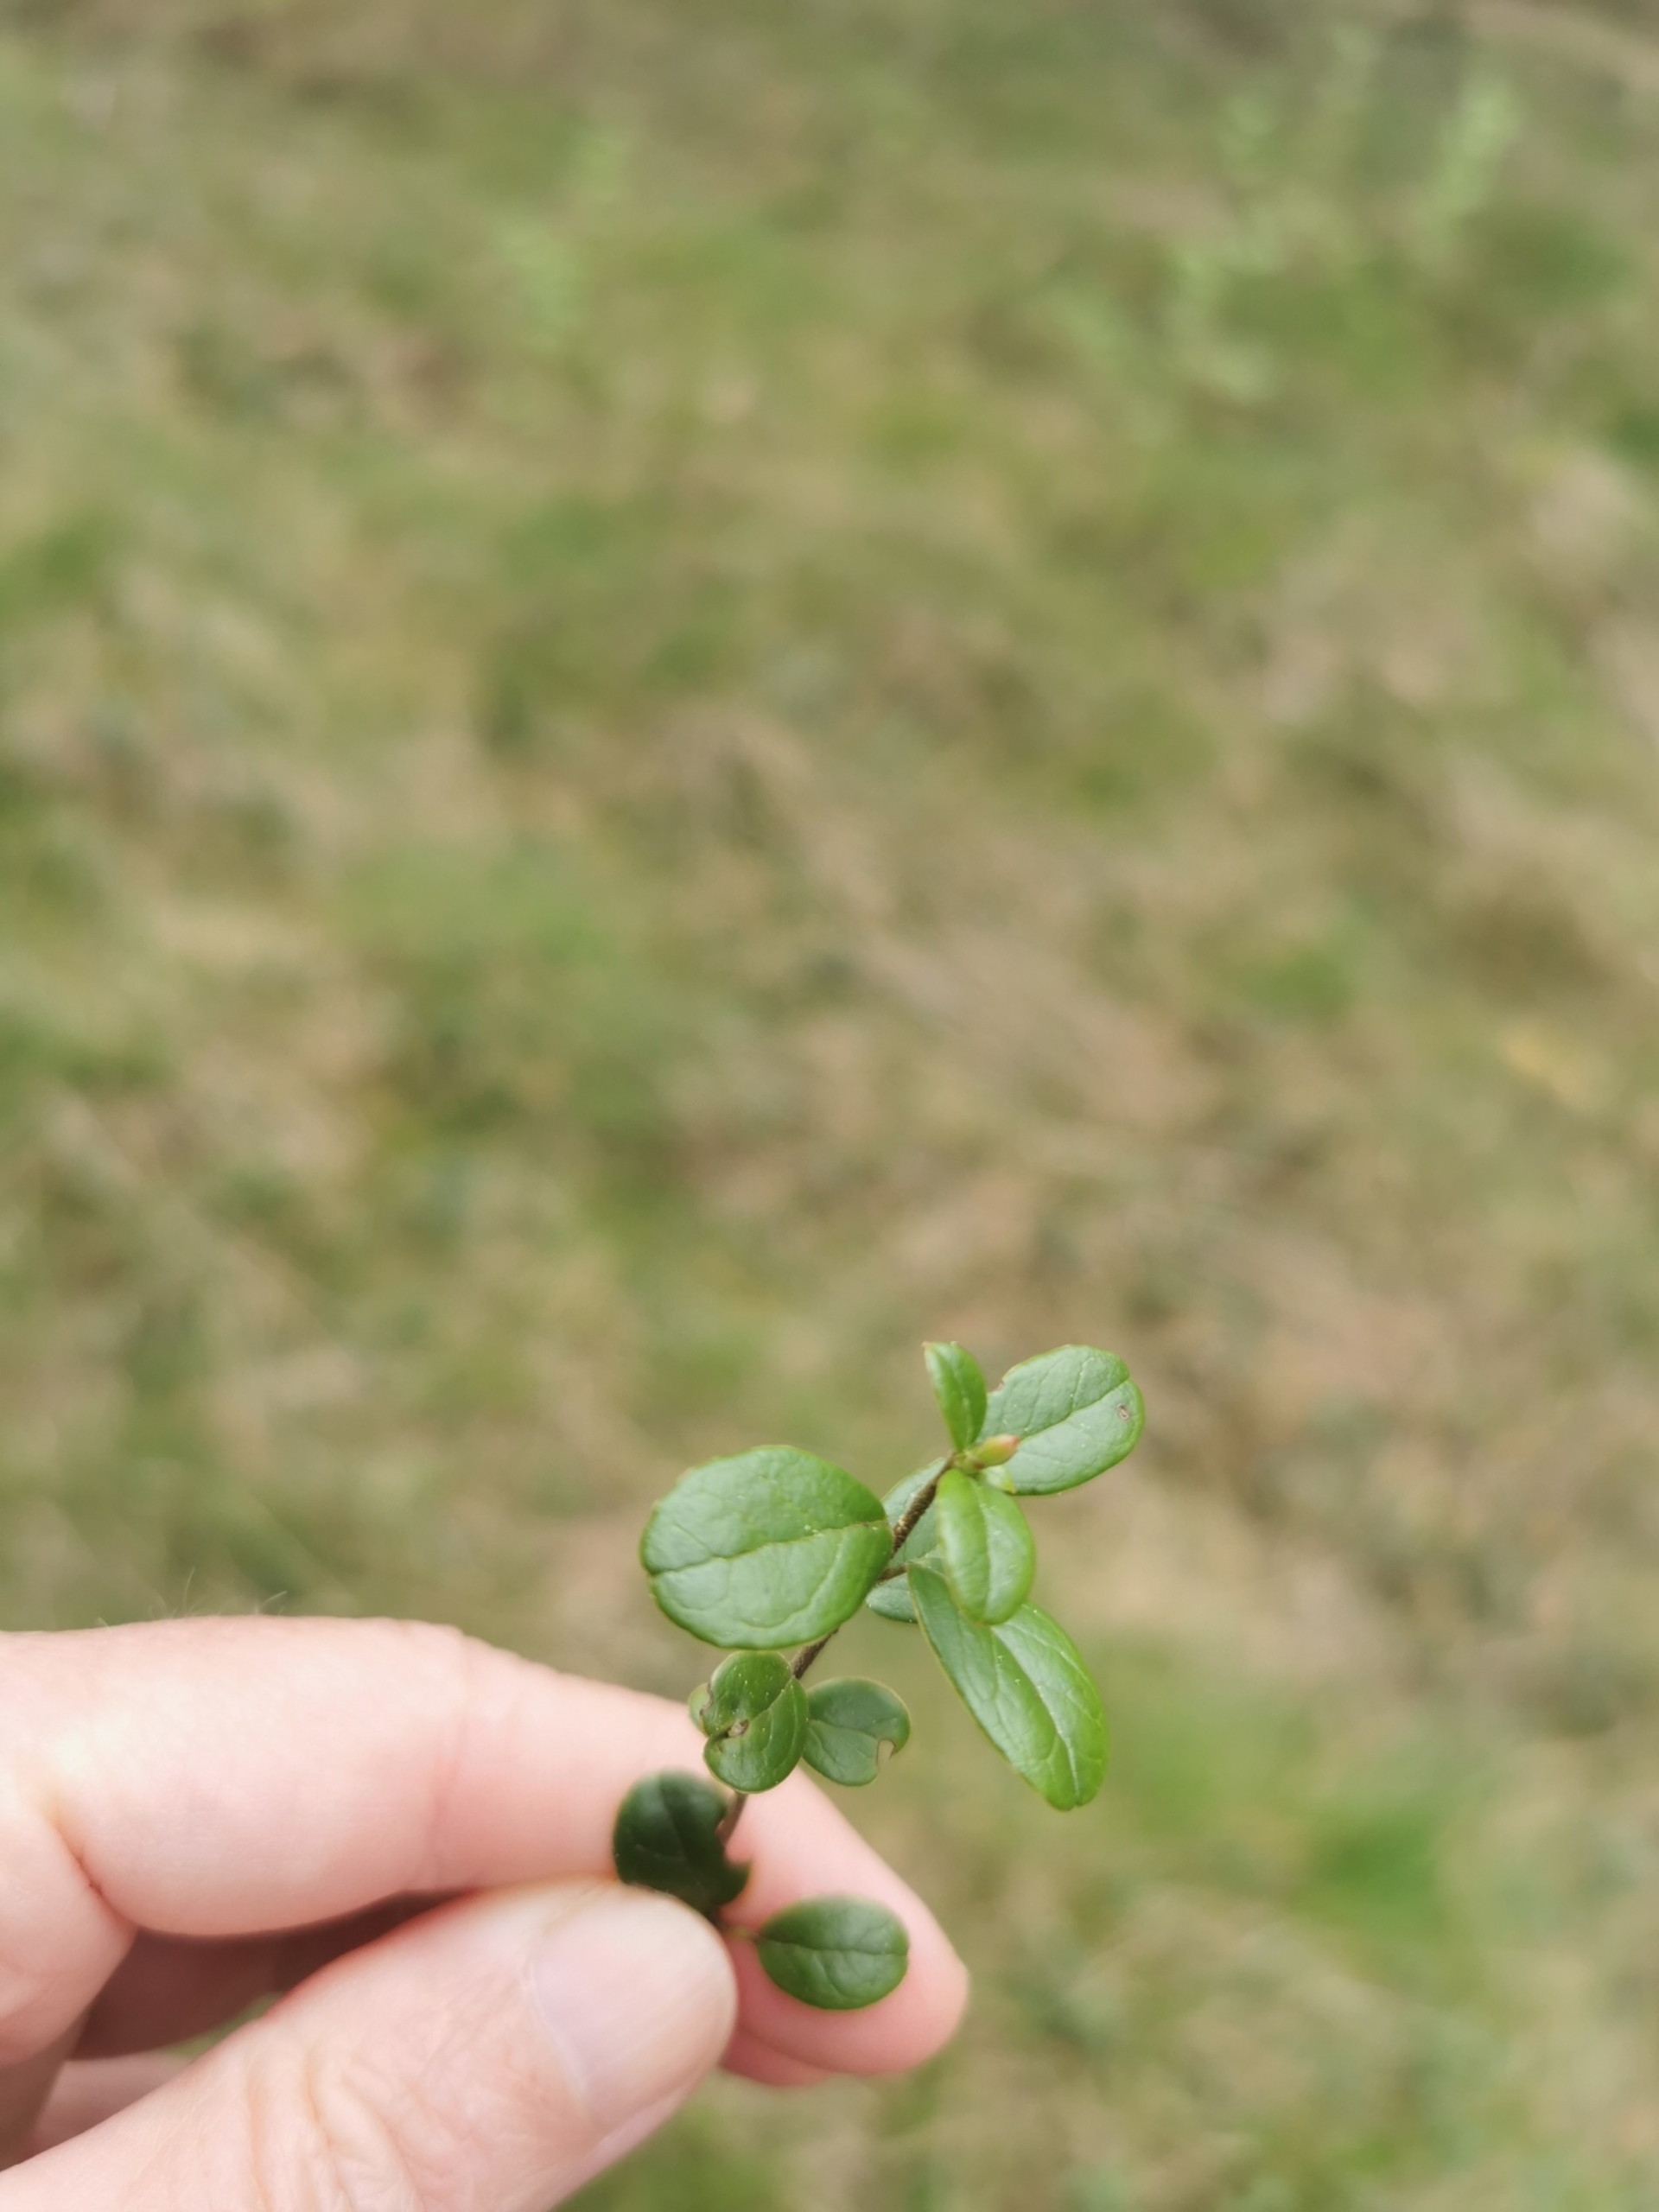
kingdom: Plantae
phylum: Tracheophyta
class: Magnoliopsida
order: Ericales
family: Ericaceae
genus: Vaccinium
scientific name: Vaccinium vitis-idaea
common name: Tyttebær
